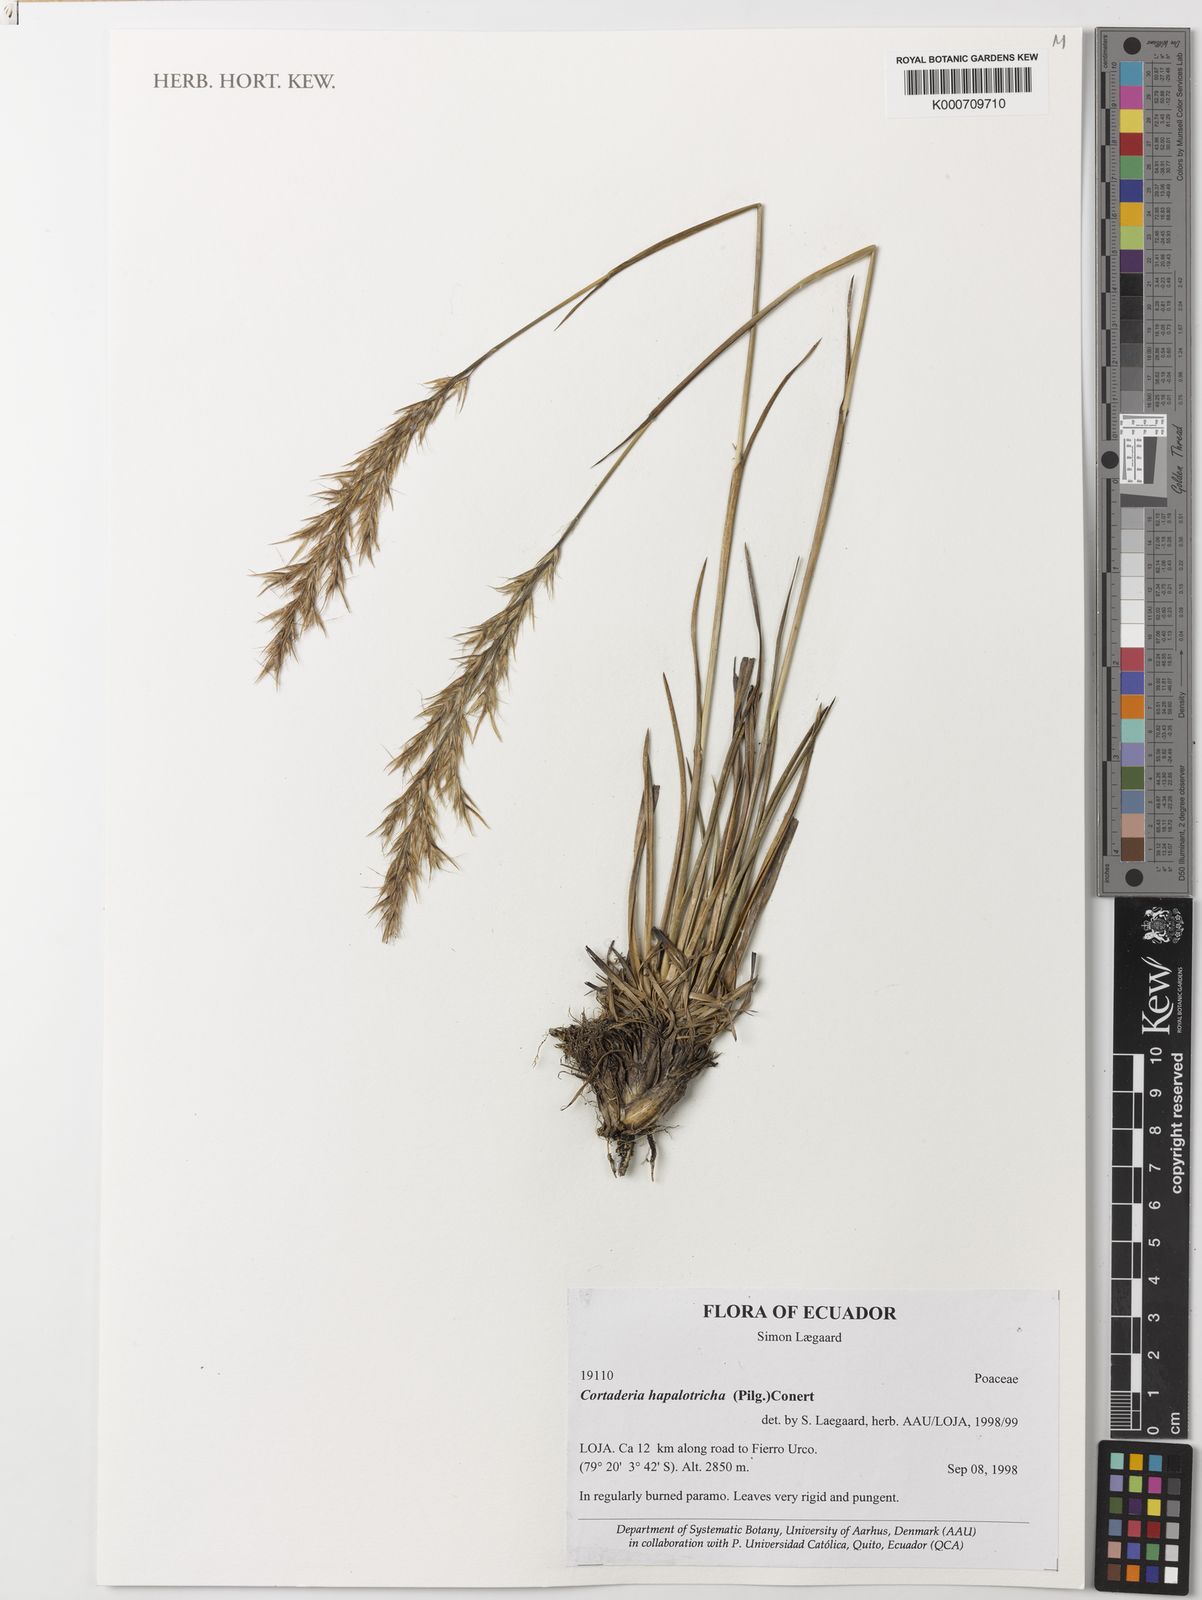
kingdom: Plantae
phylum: Tracheophyta
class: Liliopsida
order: Poales
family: Poaceae
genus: Cortaderia
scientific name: Cortaderia hapalotricha
